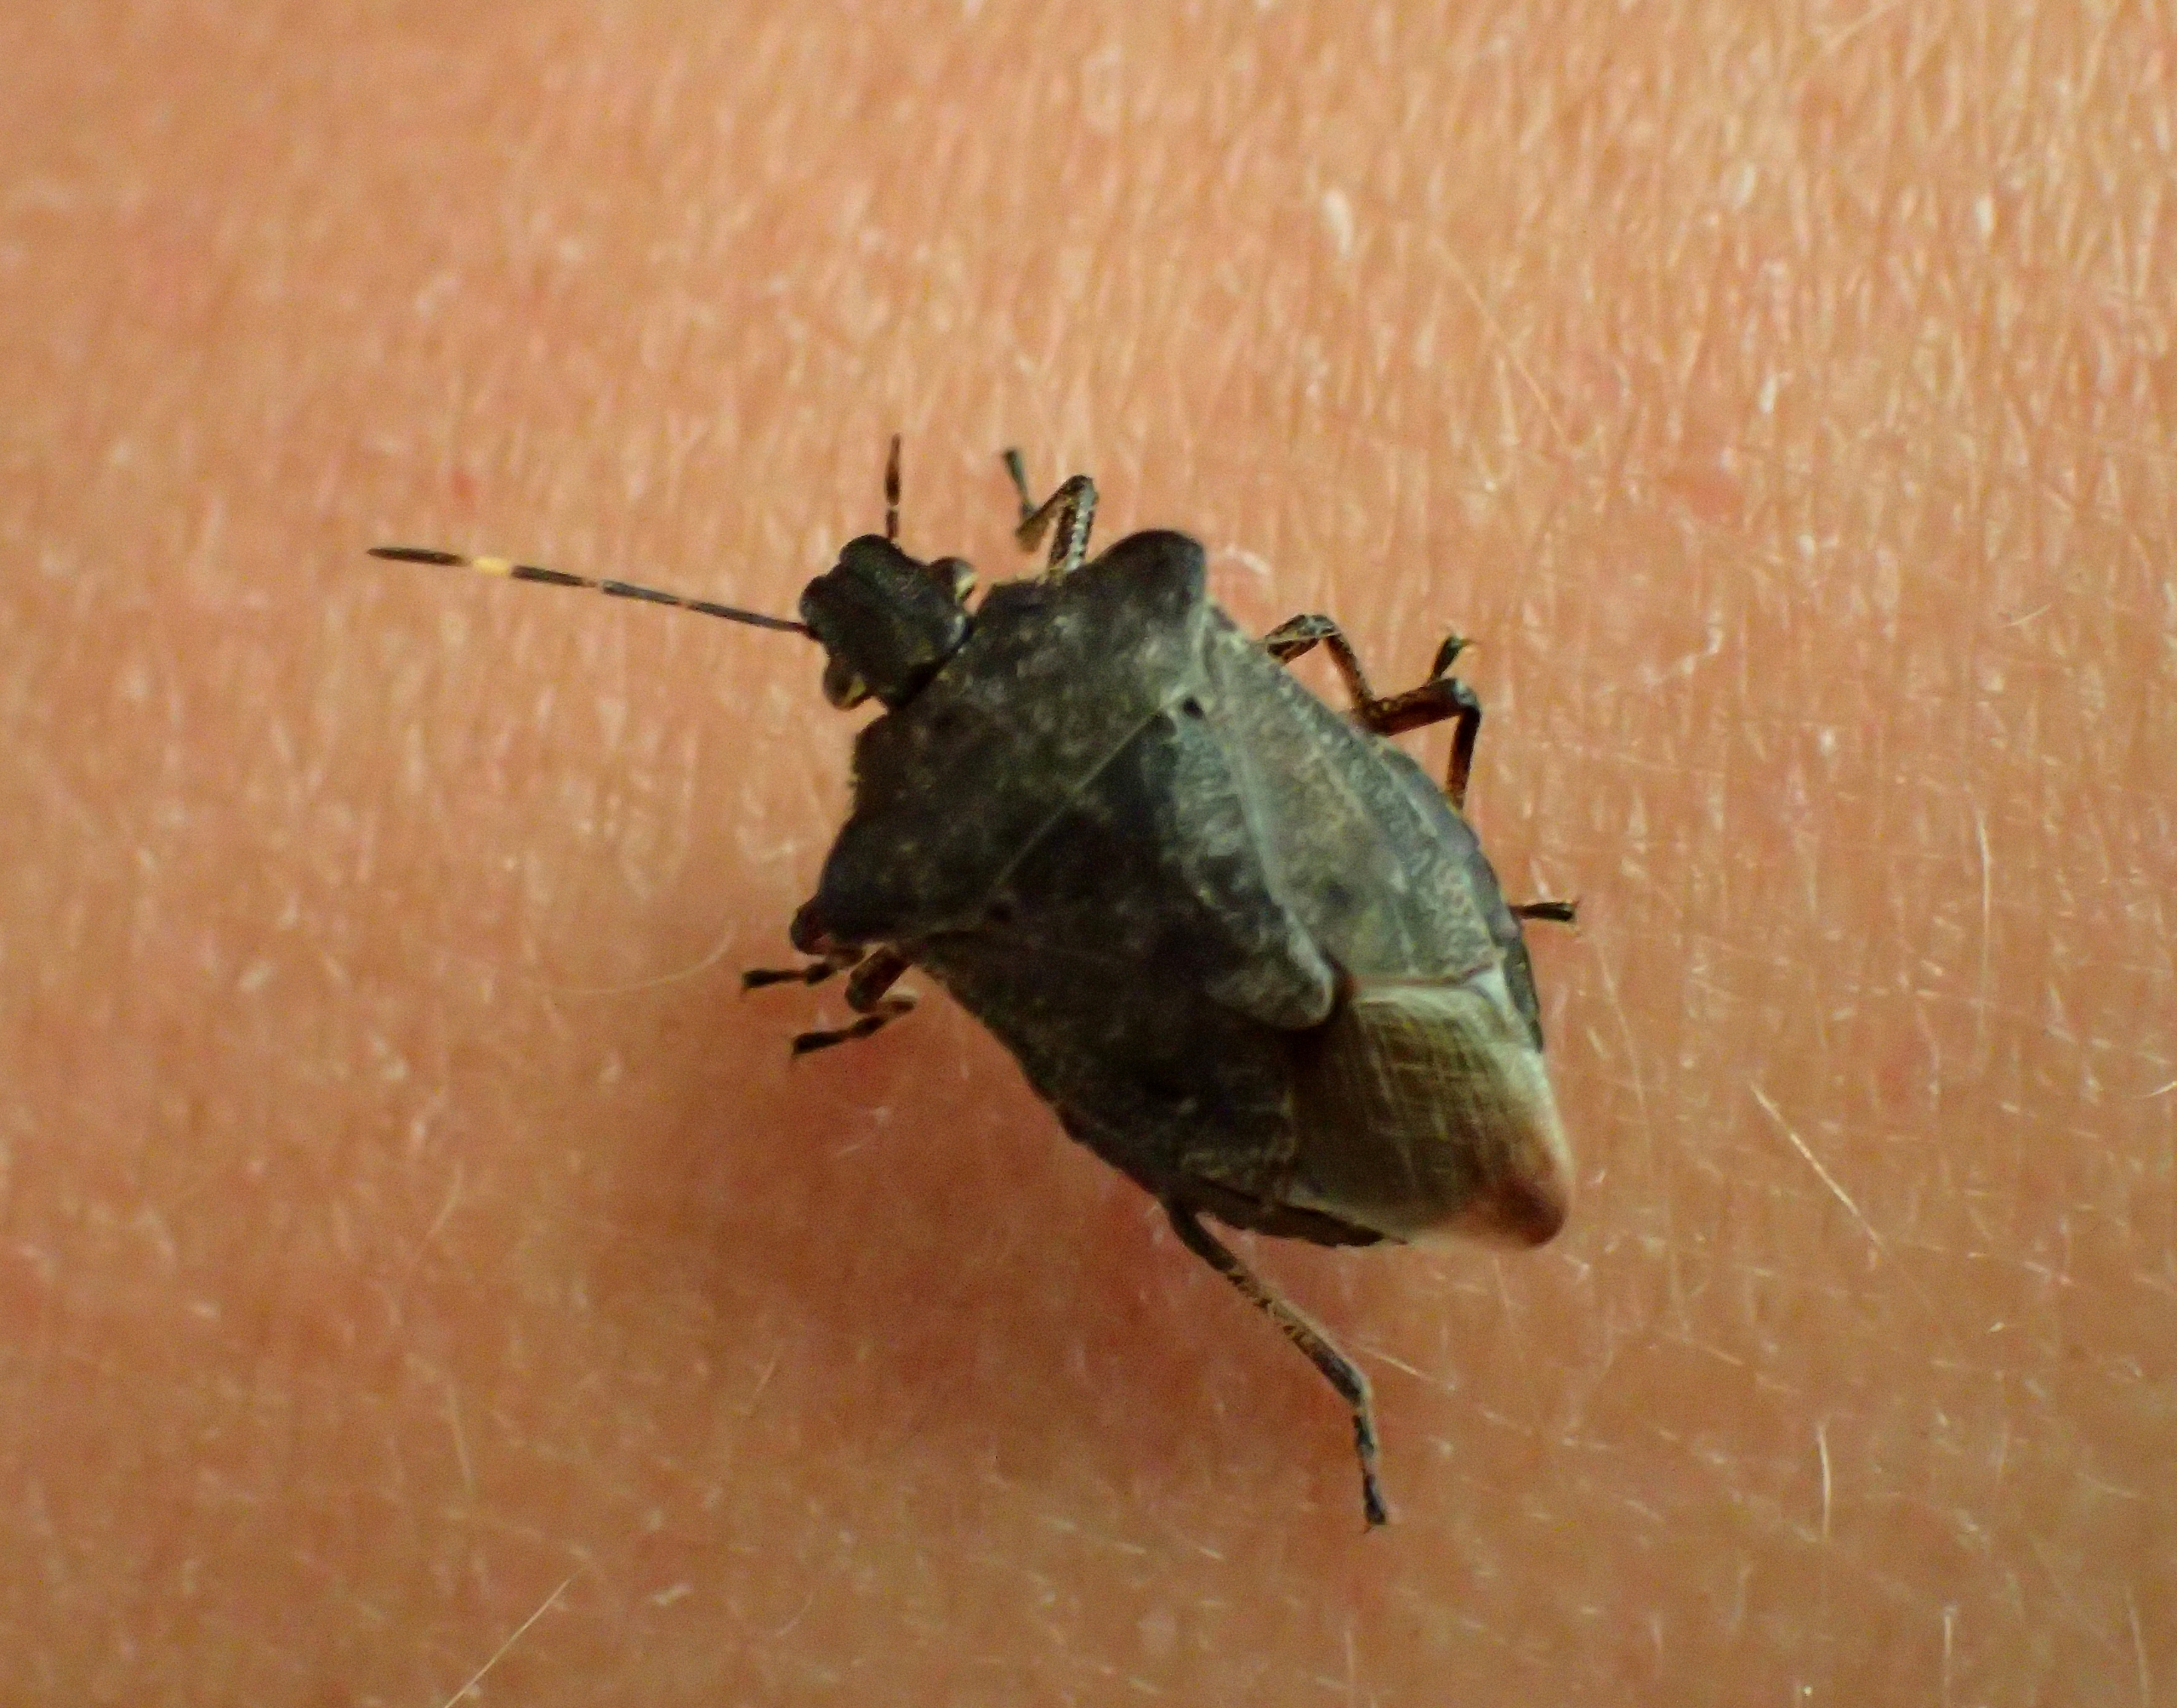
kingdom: Animalia
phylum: Arthropoda
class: Insecta
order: Hemiptera
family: Pentatomidae
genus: Troilus
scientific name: Troilus luridus
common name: Skovbredtæge
